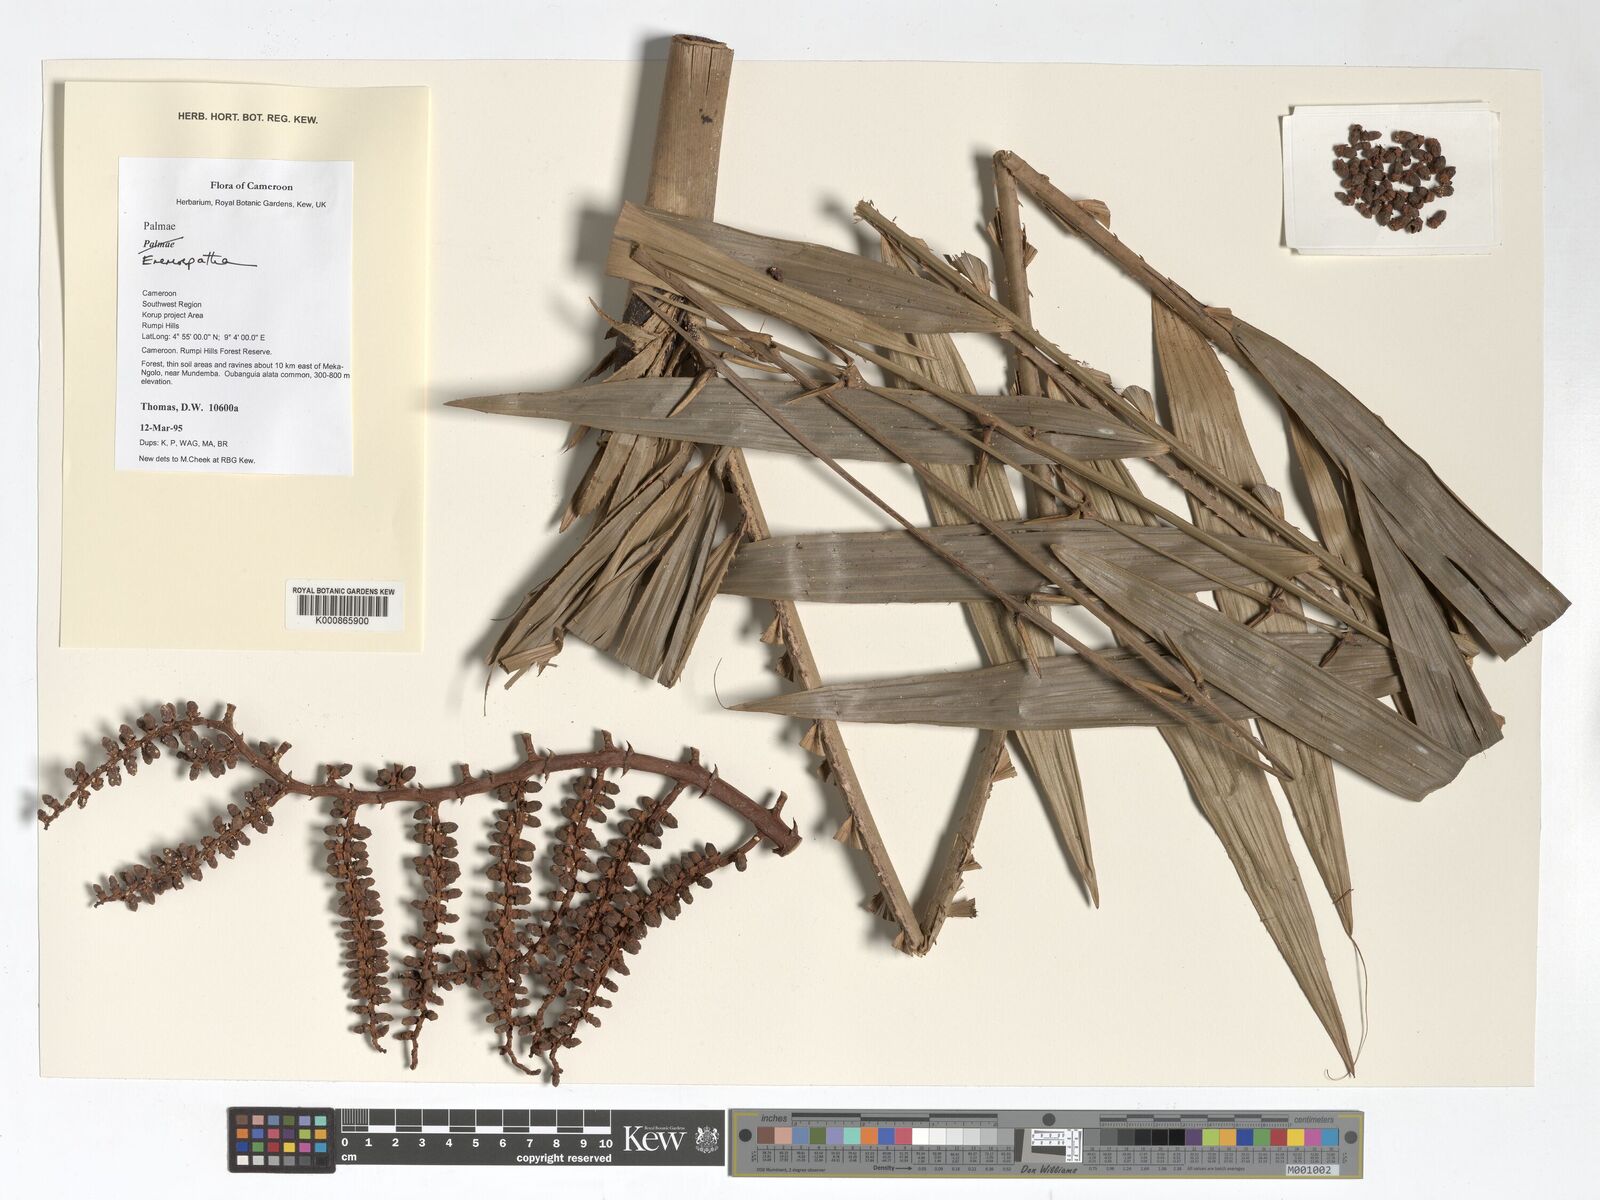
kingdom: Plantae
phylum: Tracheophyta
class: Liliopsida
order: Arecales
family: Arecaceae
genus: Eremospatha
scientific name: Eremospatha
